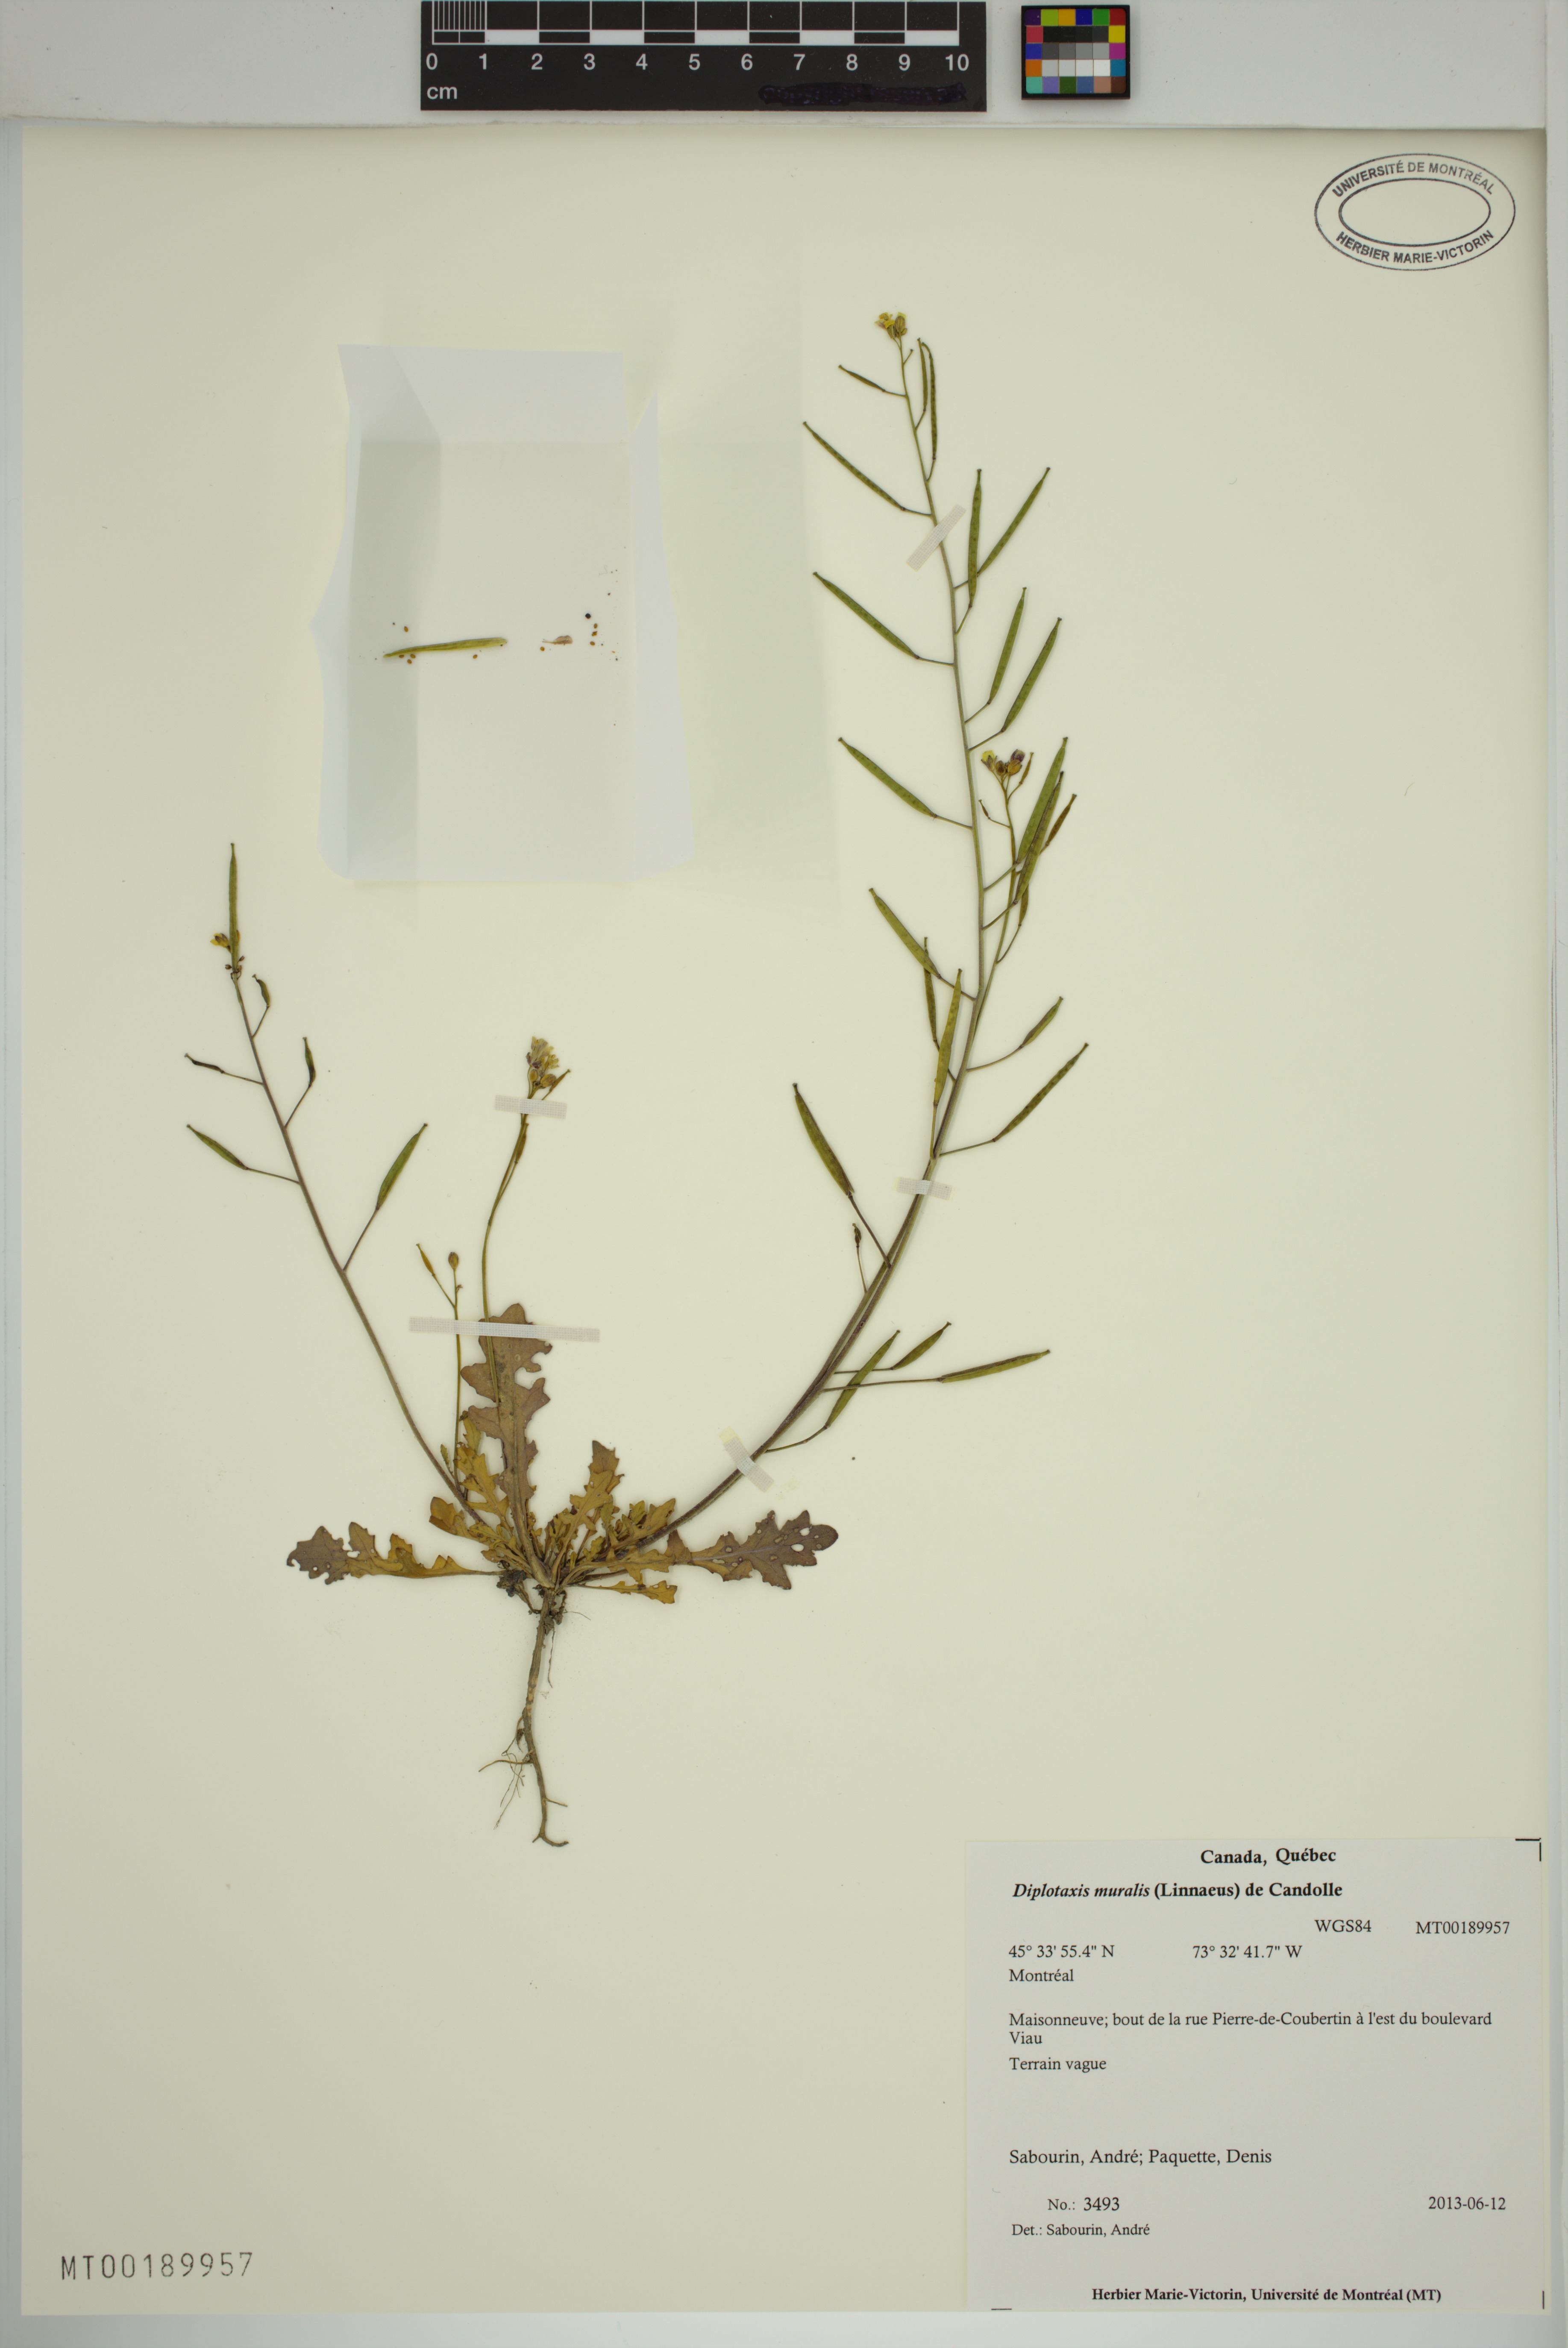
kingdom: Plantae
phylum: Tracheophyta
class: Magnoliopsida
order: Brassicales
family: Brassicaceae
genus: Diplotaxis
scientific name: Diplotaxis muralis
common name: Annual wall-rocket
